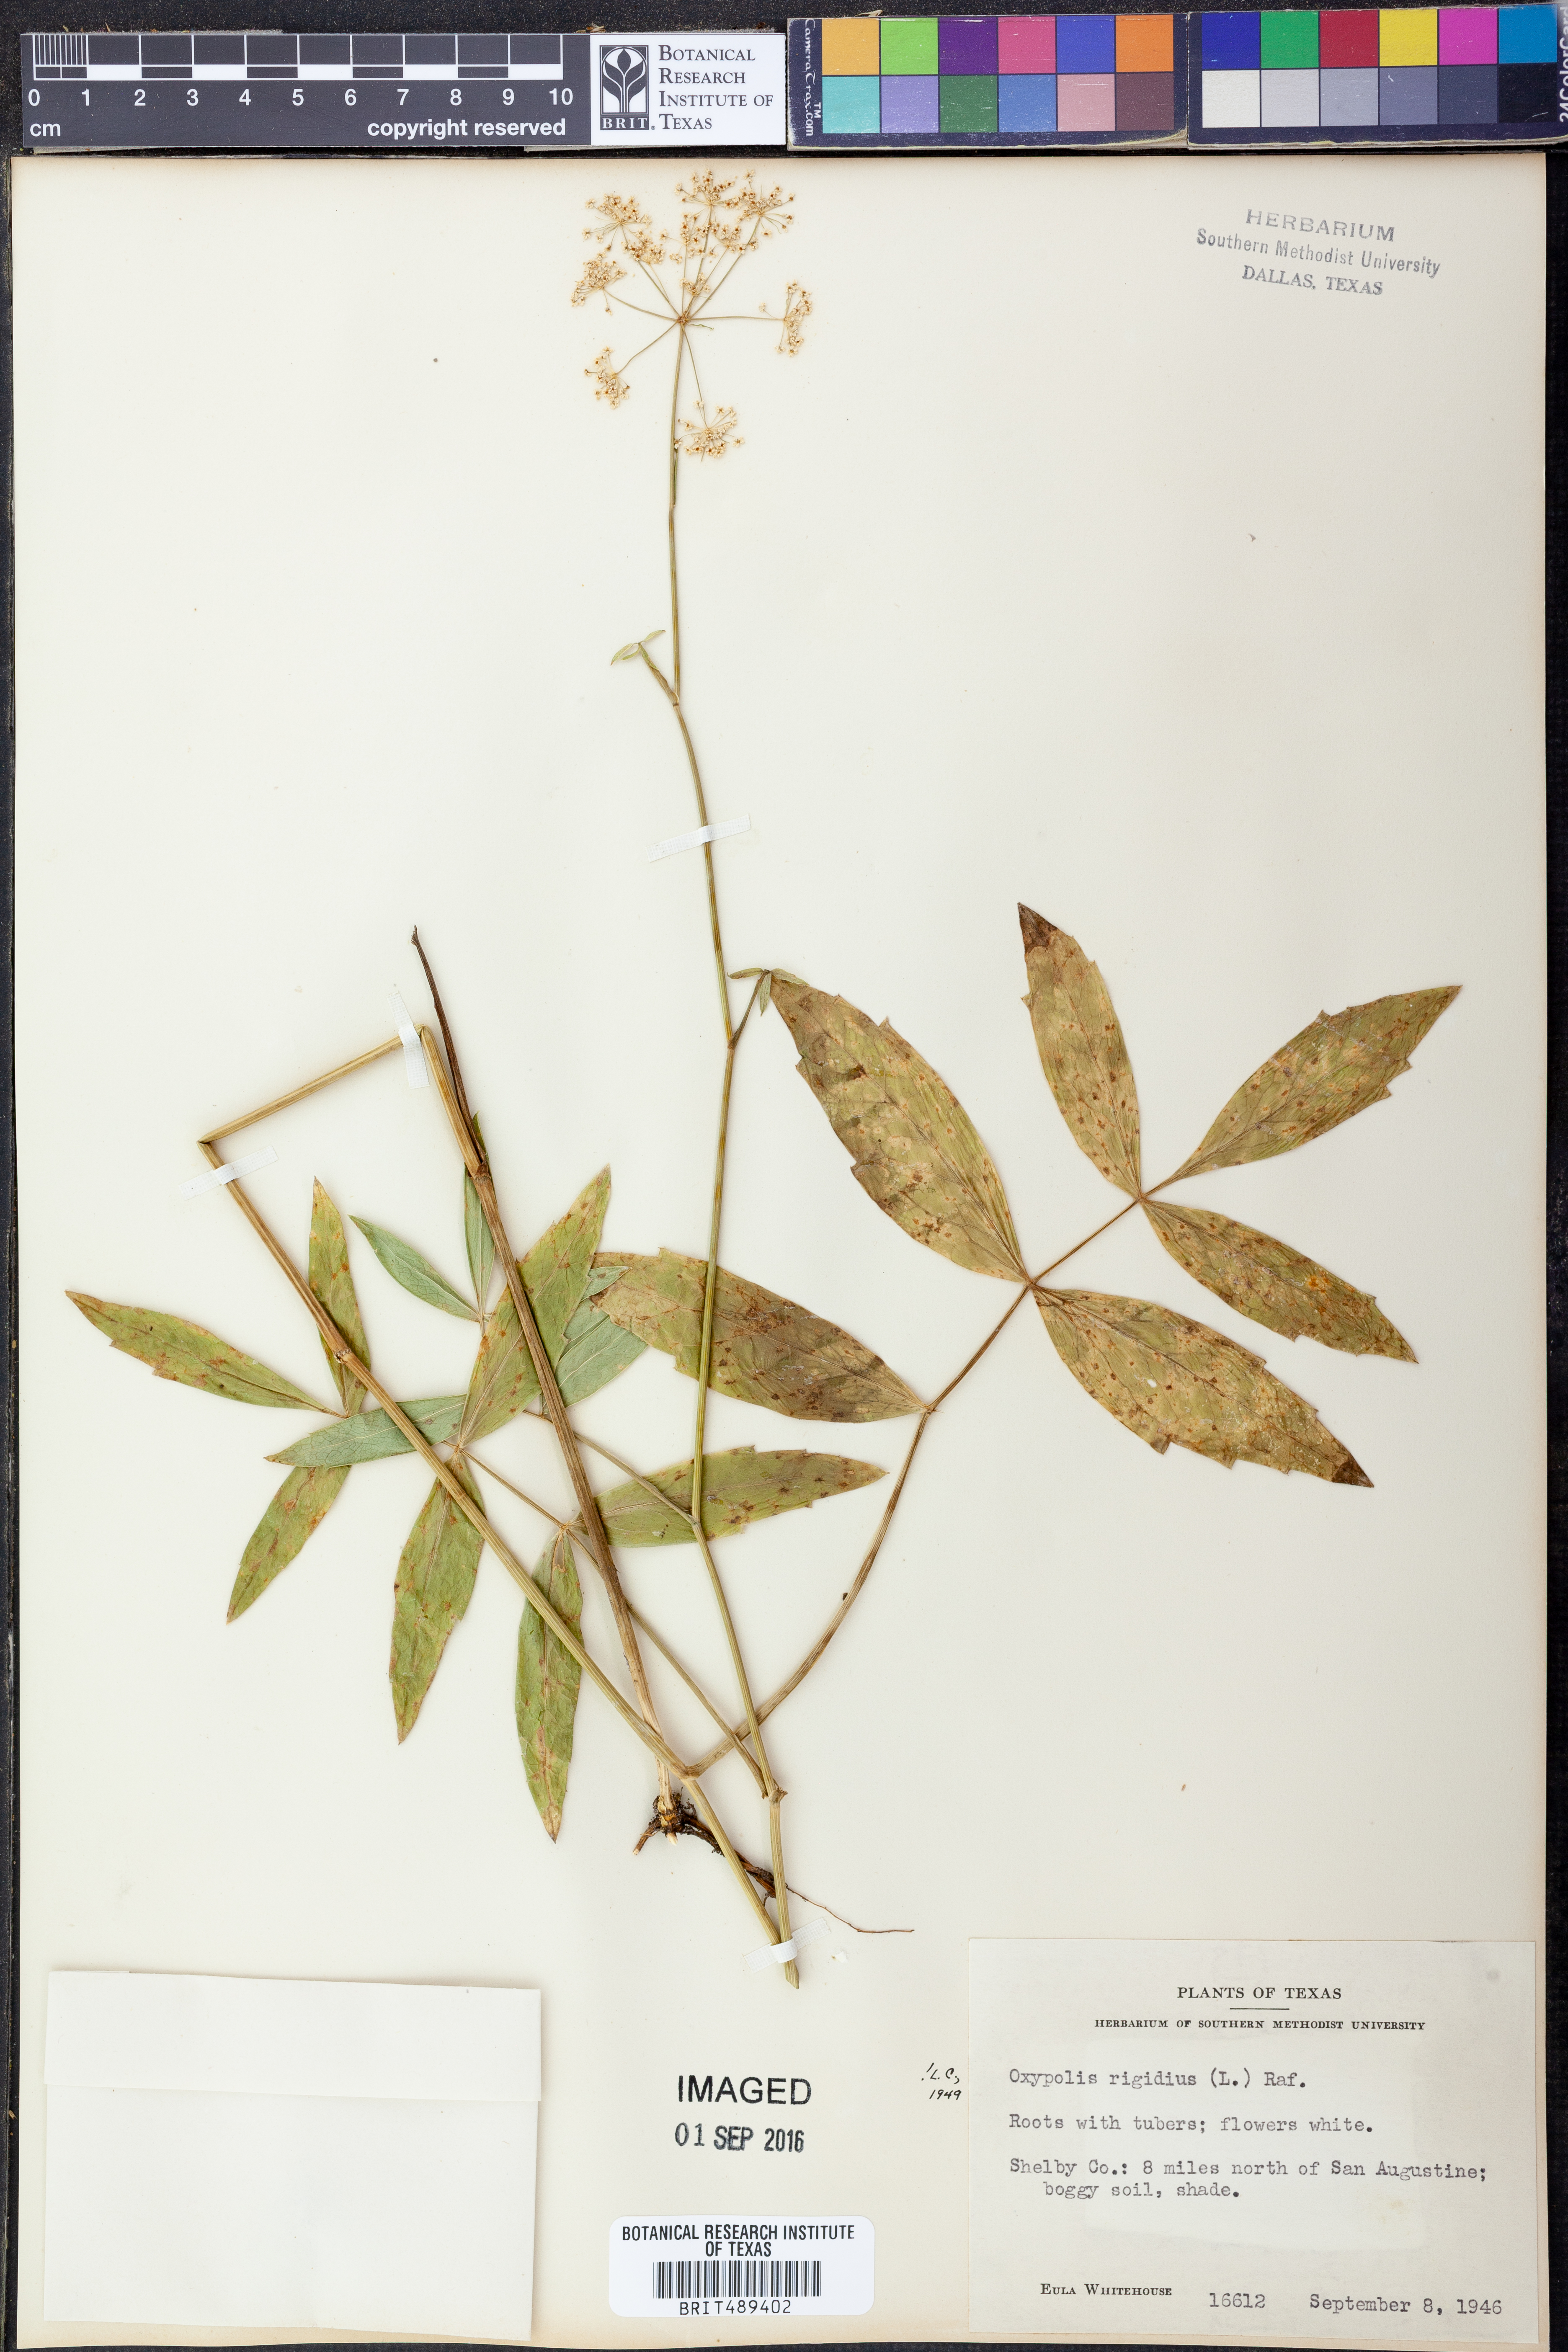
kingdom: Plantae
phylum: Tracheophyta
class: Magnoliopsida
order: Apiales
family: Apiaceae
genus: Oxypolis
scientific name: Oxypolis rigidior
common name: Cowbane
